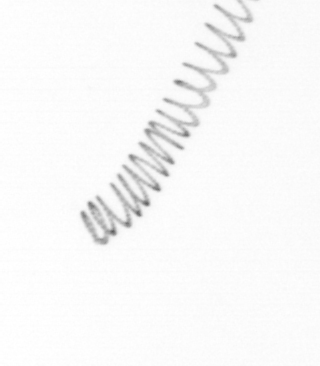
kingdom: Chromista
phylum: Ochrophyta
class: Bacillariophyceae
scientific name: Bacillariophyceae
